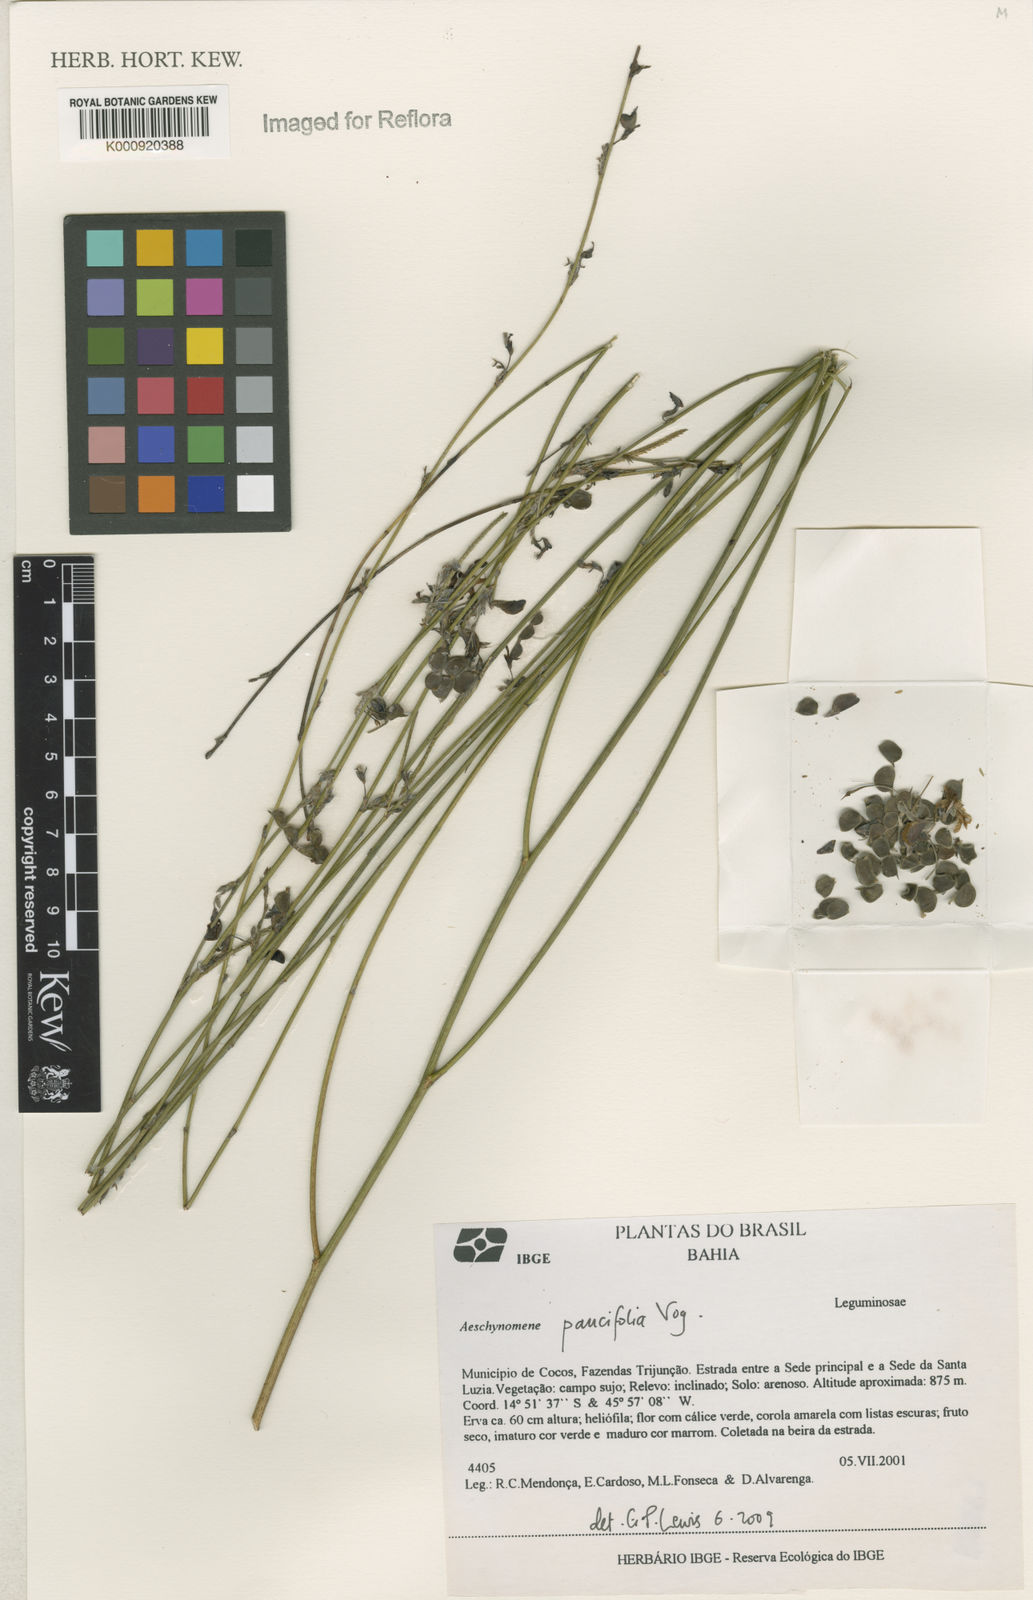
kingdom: Plantae
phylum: Tracheophyta
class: Magnoliopsida
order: Fabales
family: Fabaceae
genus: Ctenodon
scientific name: Ctenodon paucifolius
